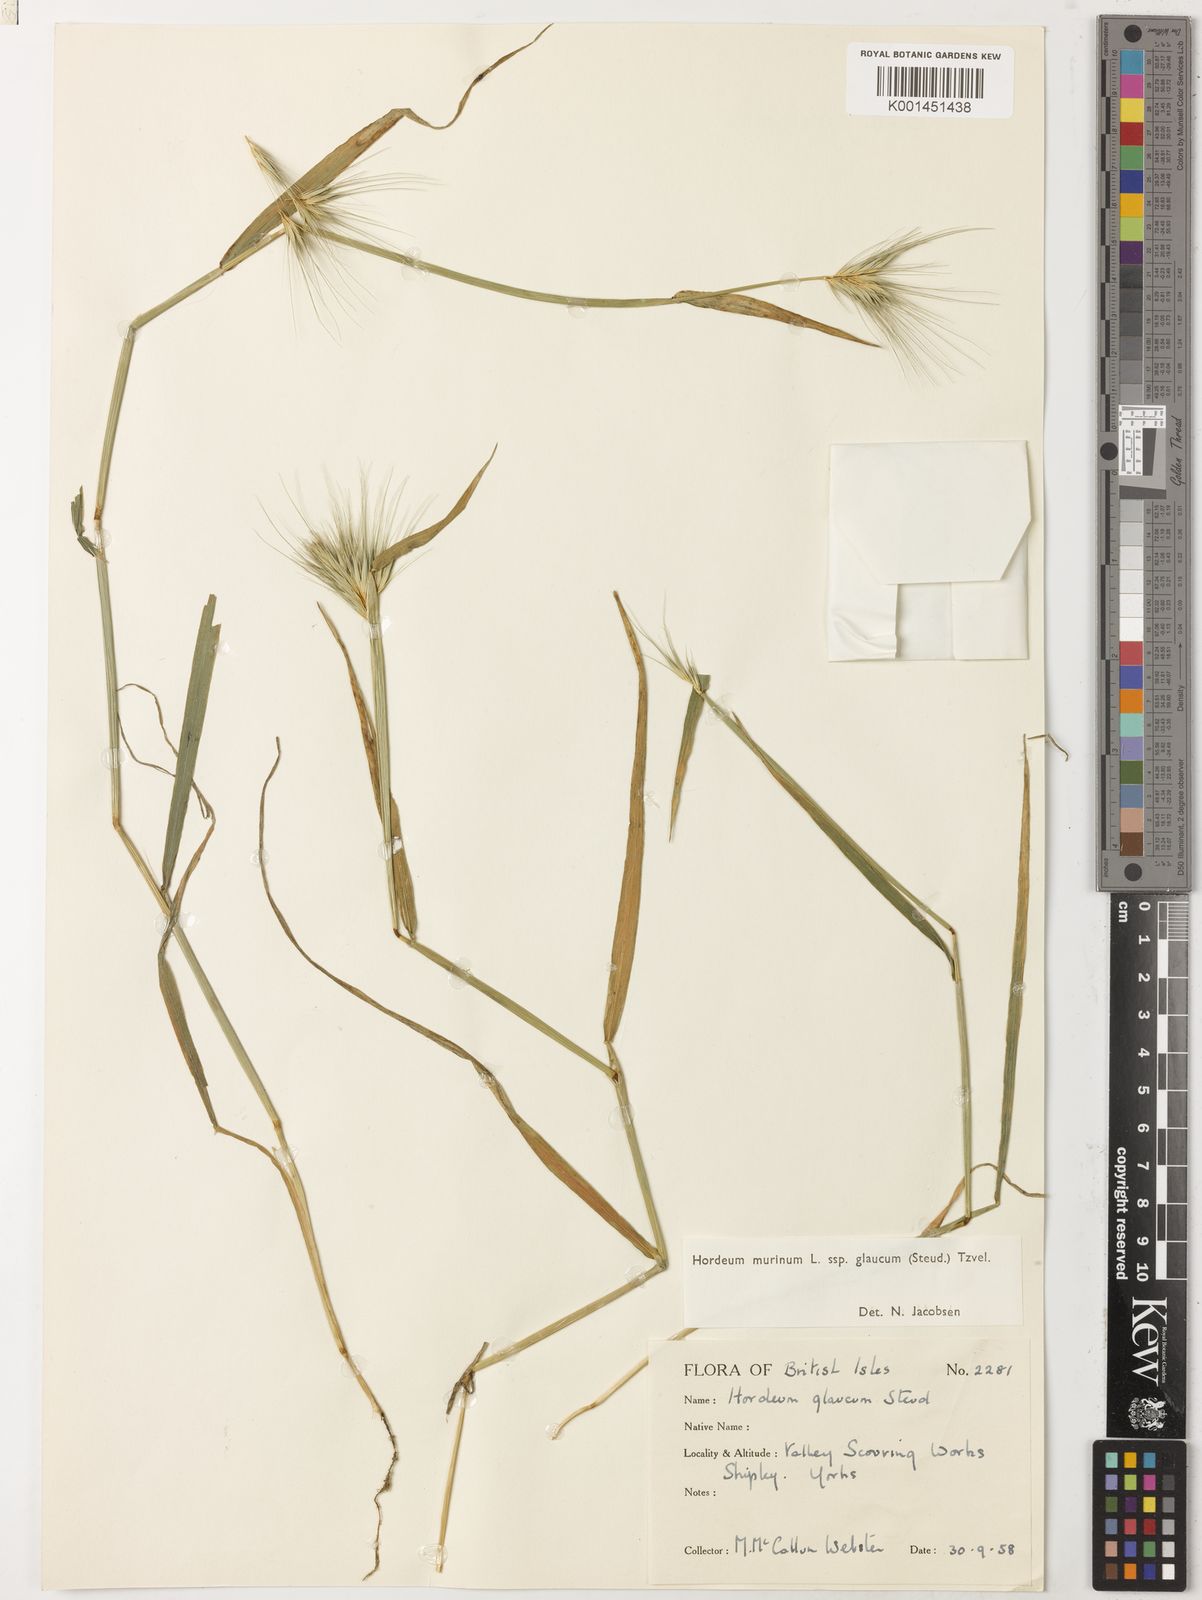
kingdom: Plantae
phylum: Tracheophyta
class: Liliopsida
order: Poales
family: Poaceae
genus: Hordeum
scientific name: Hordeum murinum
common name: Wall barley
